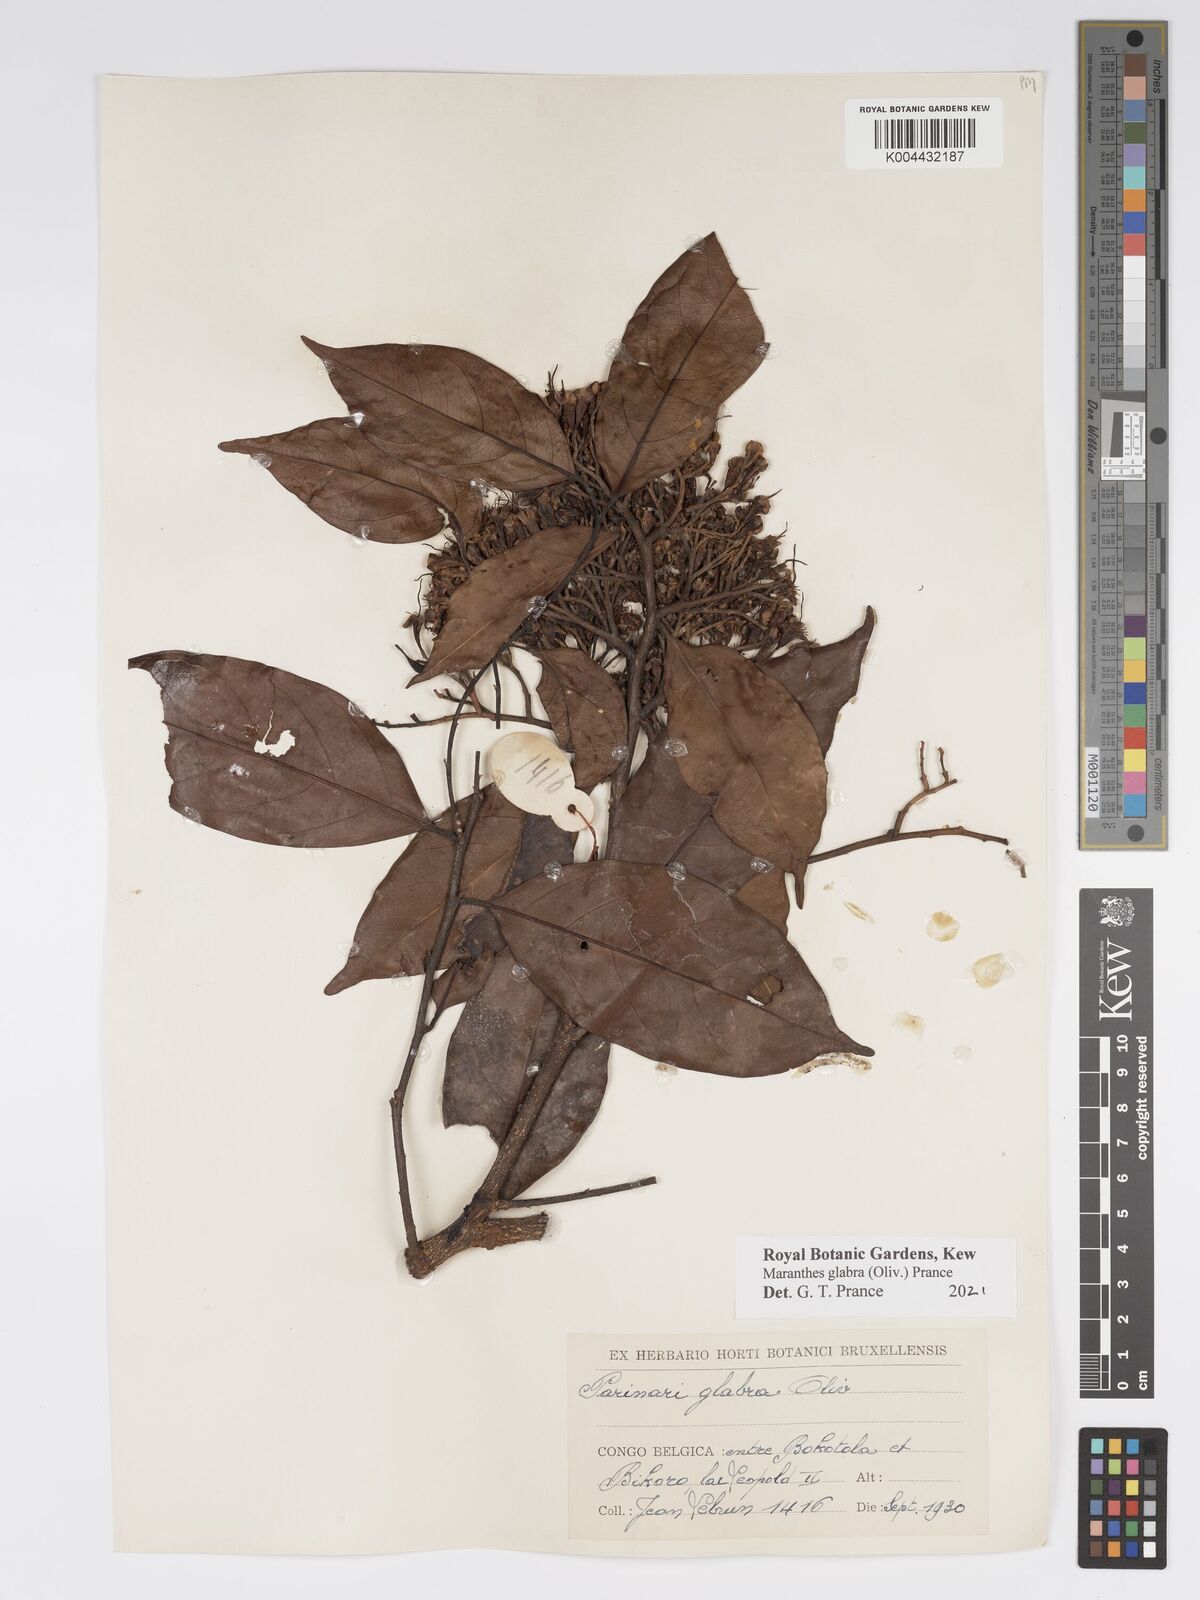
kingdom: Plantae
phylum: Tracheophyta
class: Magnoliopsida
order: Malpighiales
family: Chrysobalanaceae
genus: Maranthes
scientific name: Maranthes glabra
